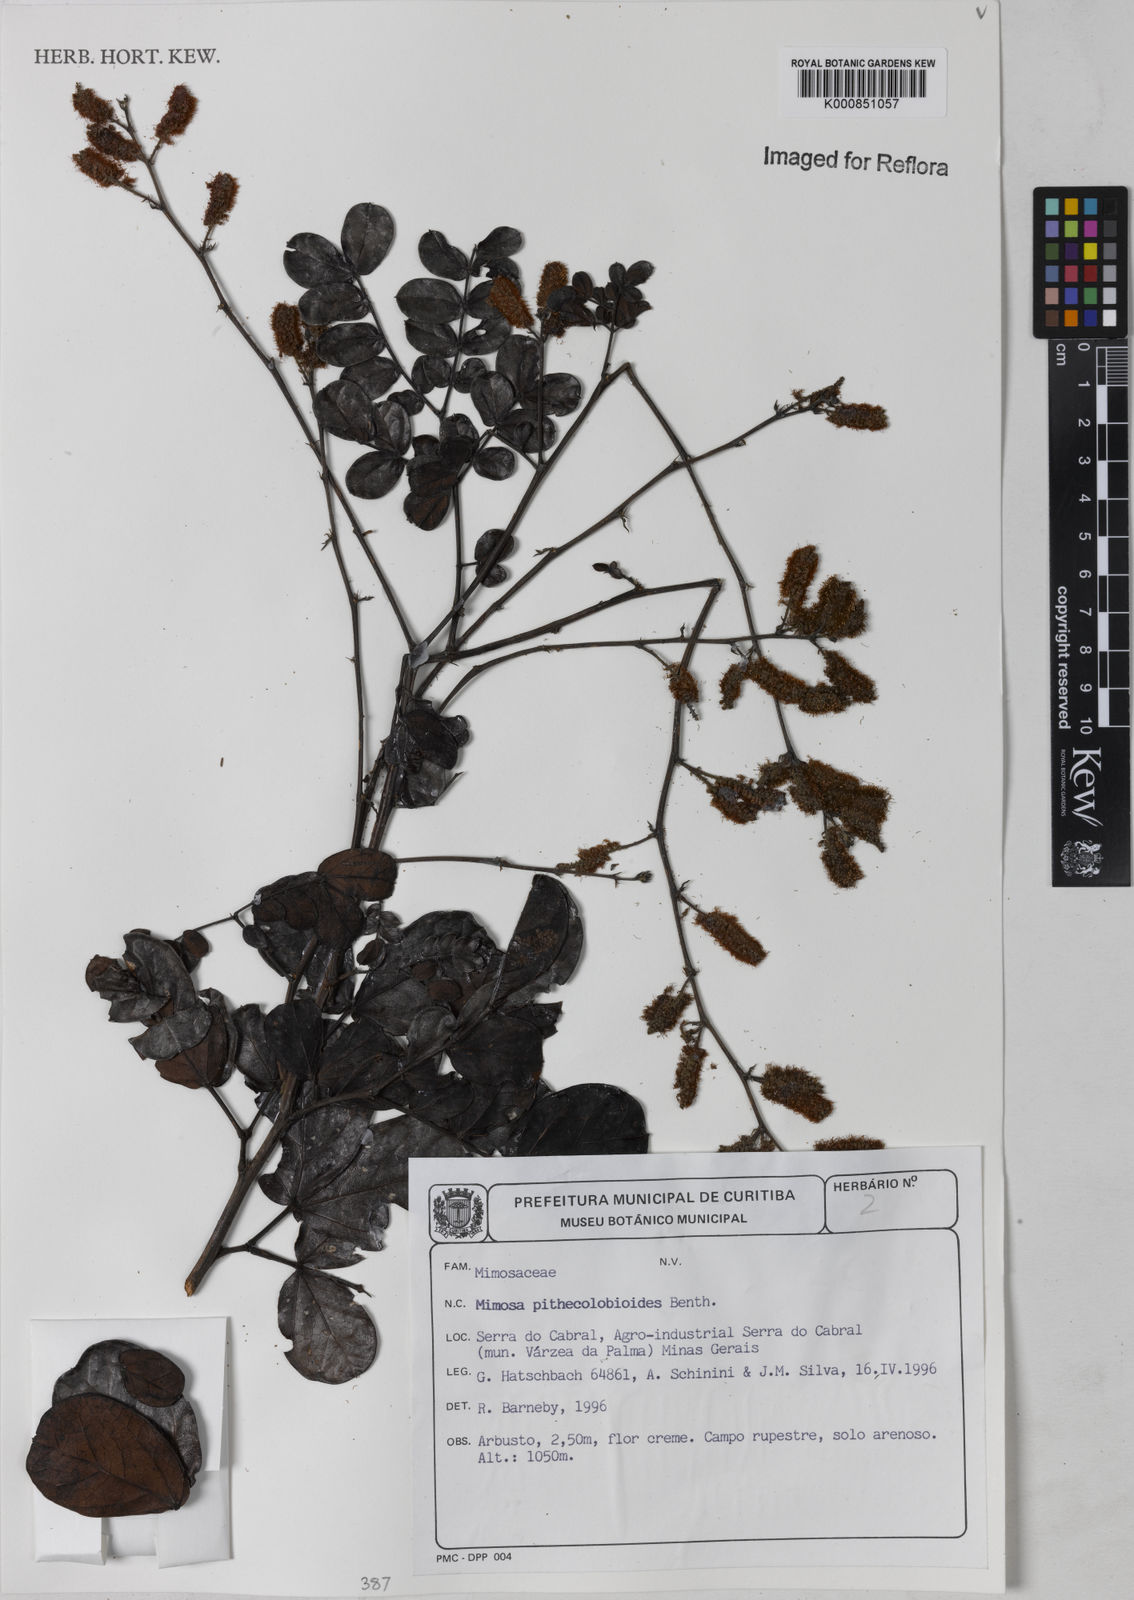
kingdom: Plantae
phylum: Tracheophyta
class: Magnoliopsida
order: Fabales
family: Fabaceae
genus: Mimosa
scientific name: Mimosa pithecolobioides
